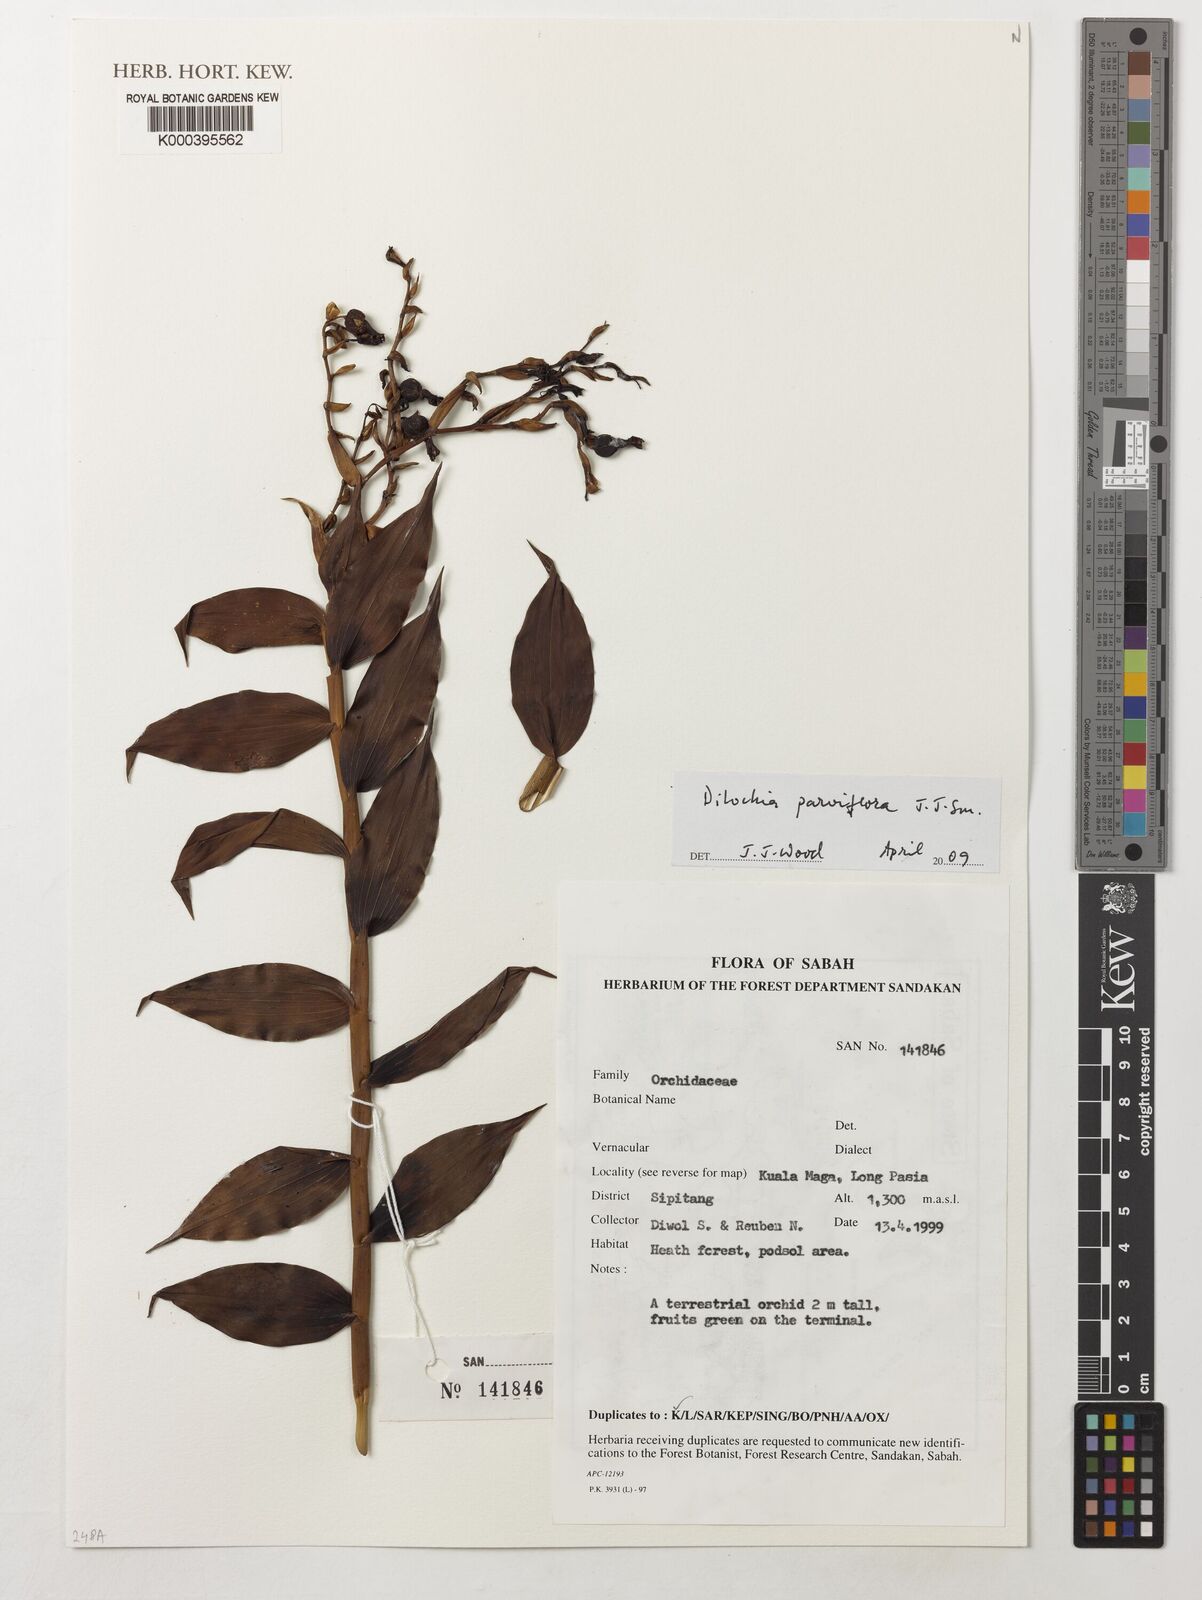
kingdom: Plantae
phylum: Tracheophyta
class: Liliopsida
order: Asparagales
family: Orchidaceae
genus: Dilochia
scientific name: Dilochia parviflora
